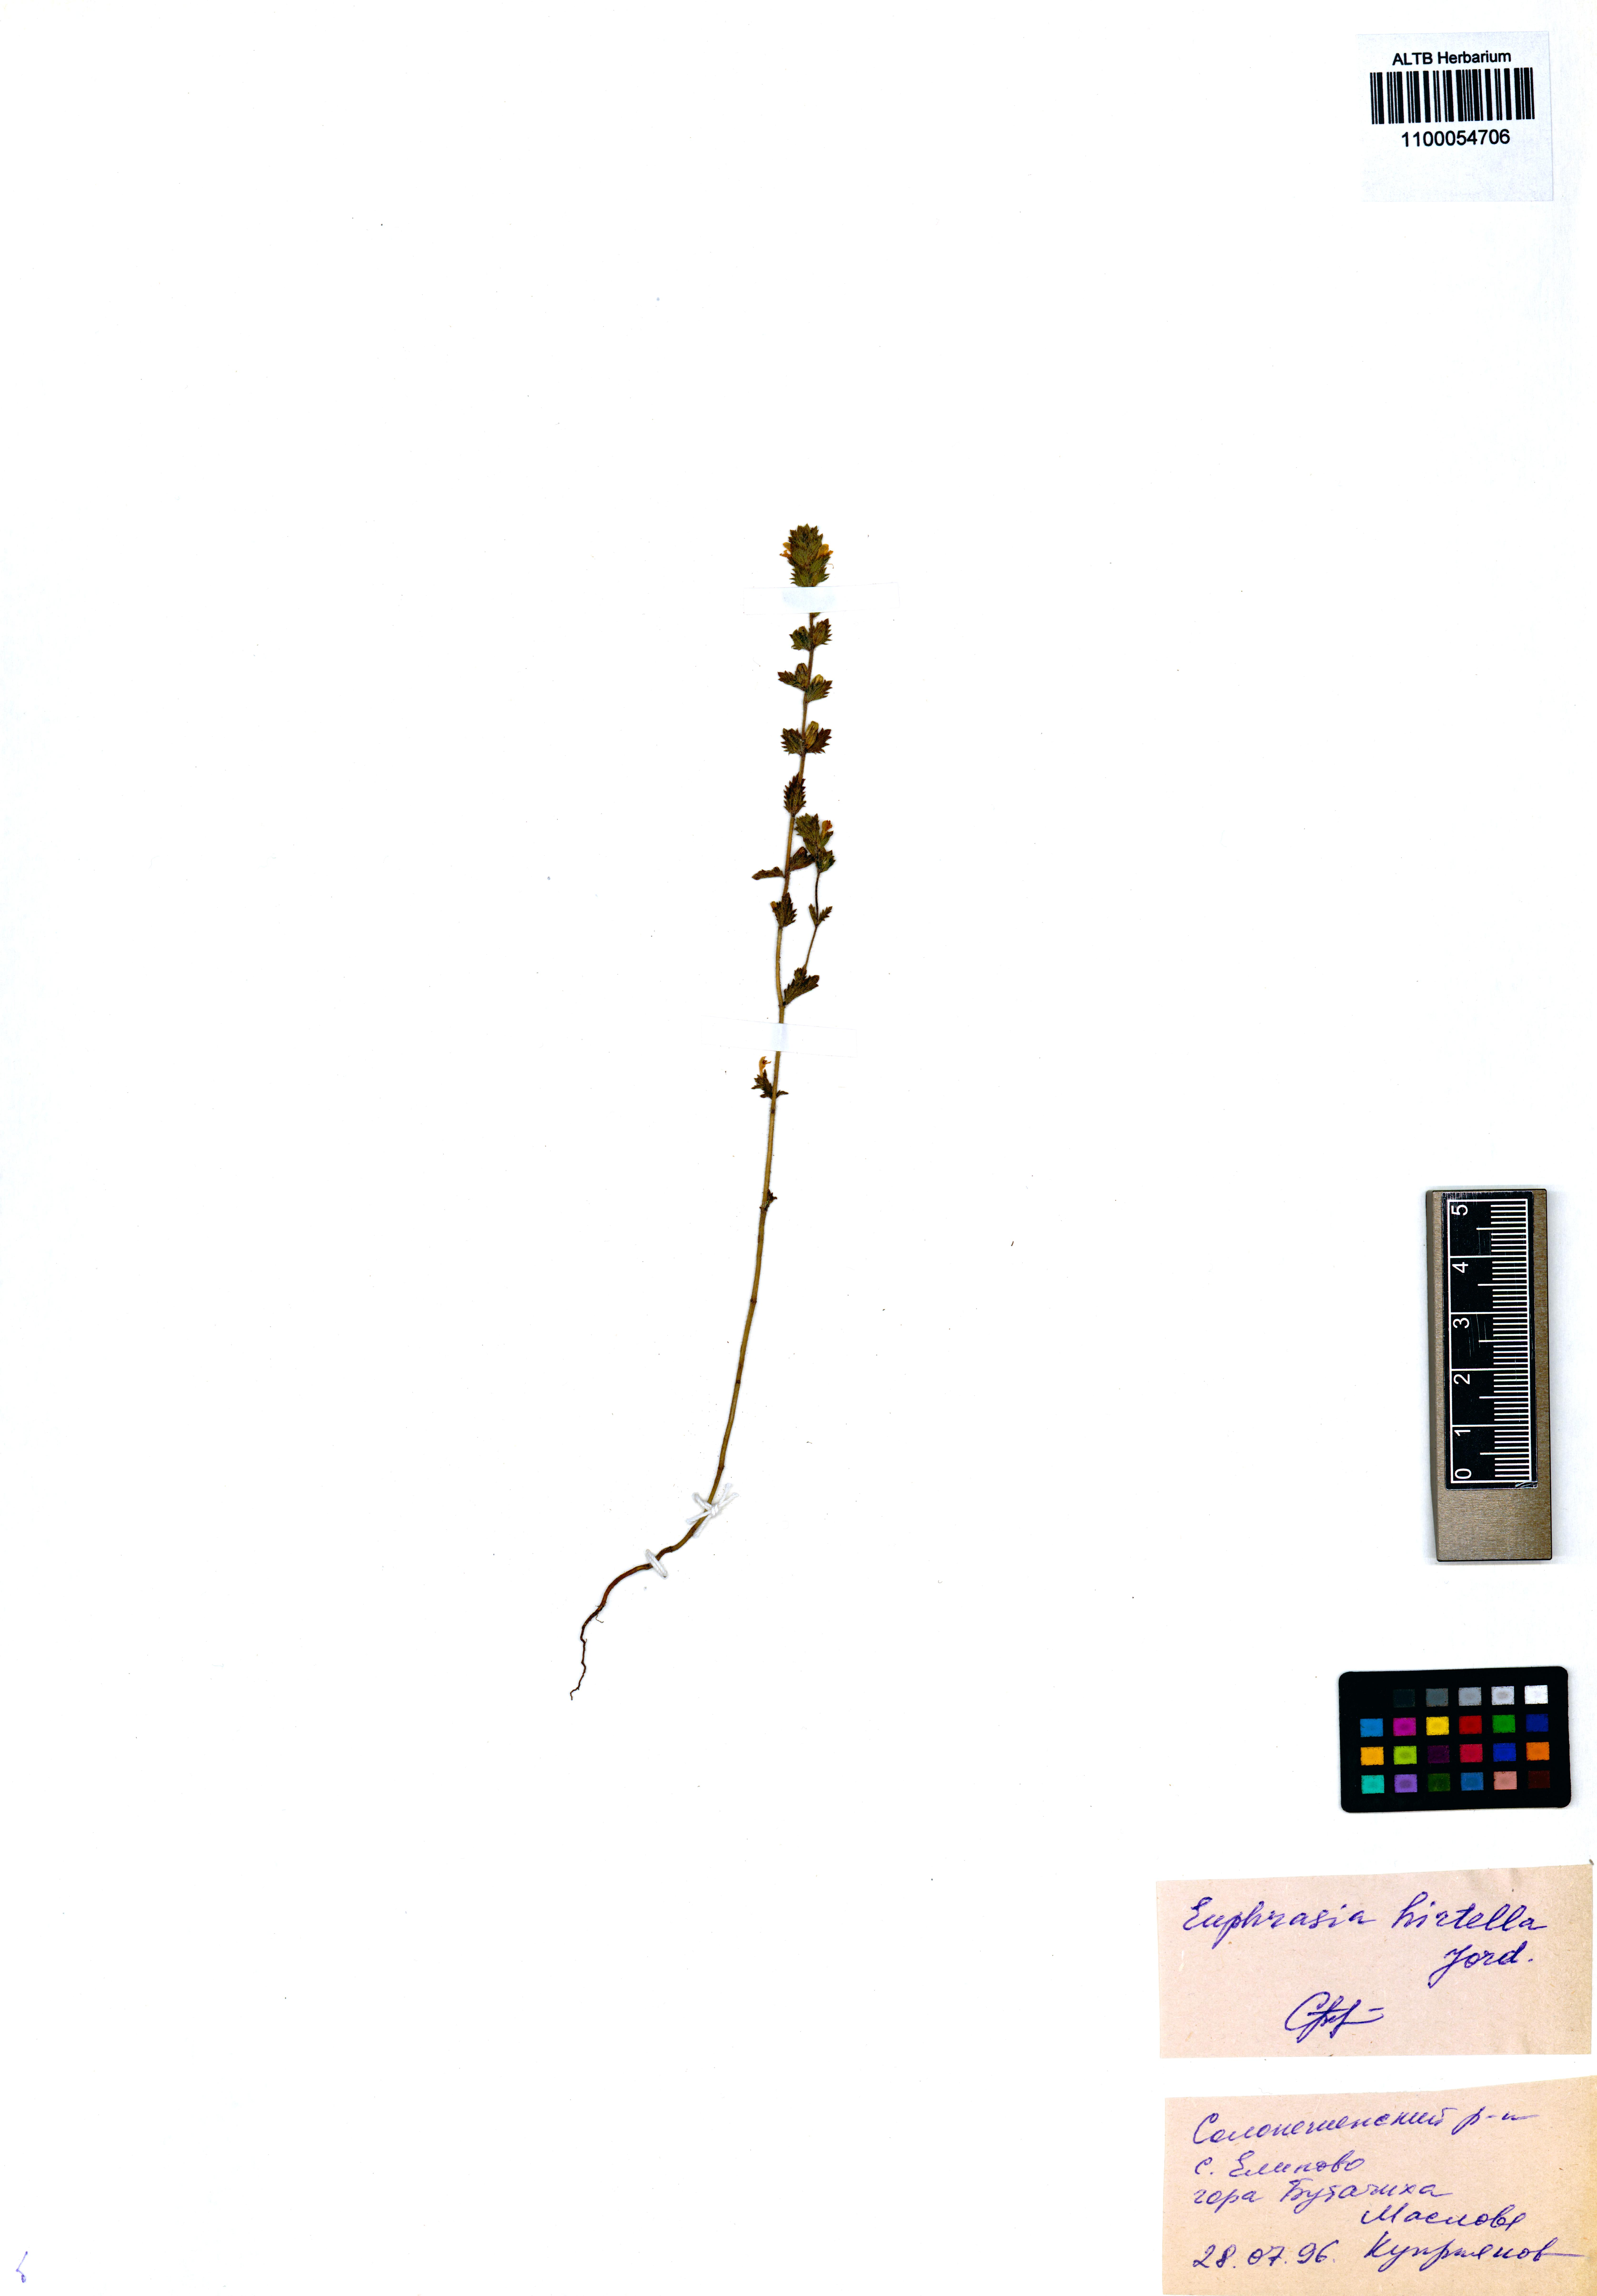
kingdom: Plantae
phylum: Tracheophyta
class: Magnoliopsida
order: Lamiales
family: Orobanchaceae
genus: Euphrasia
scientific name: Euphrasia hirtella
